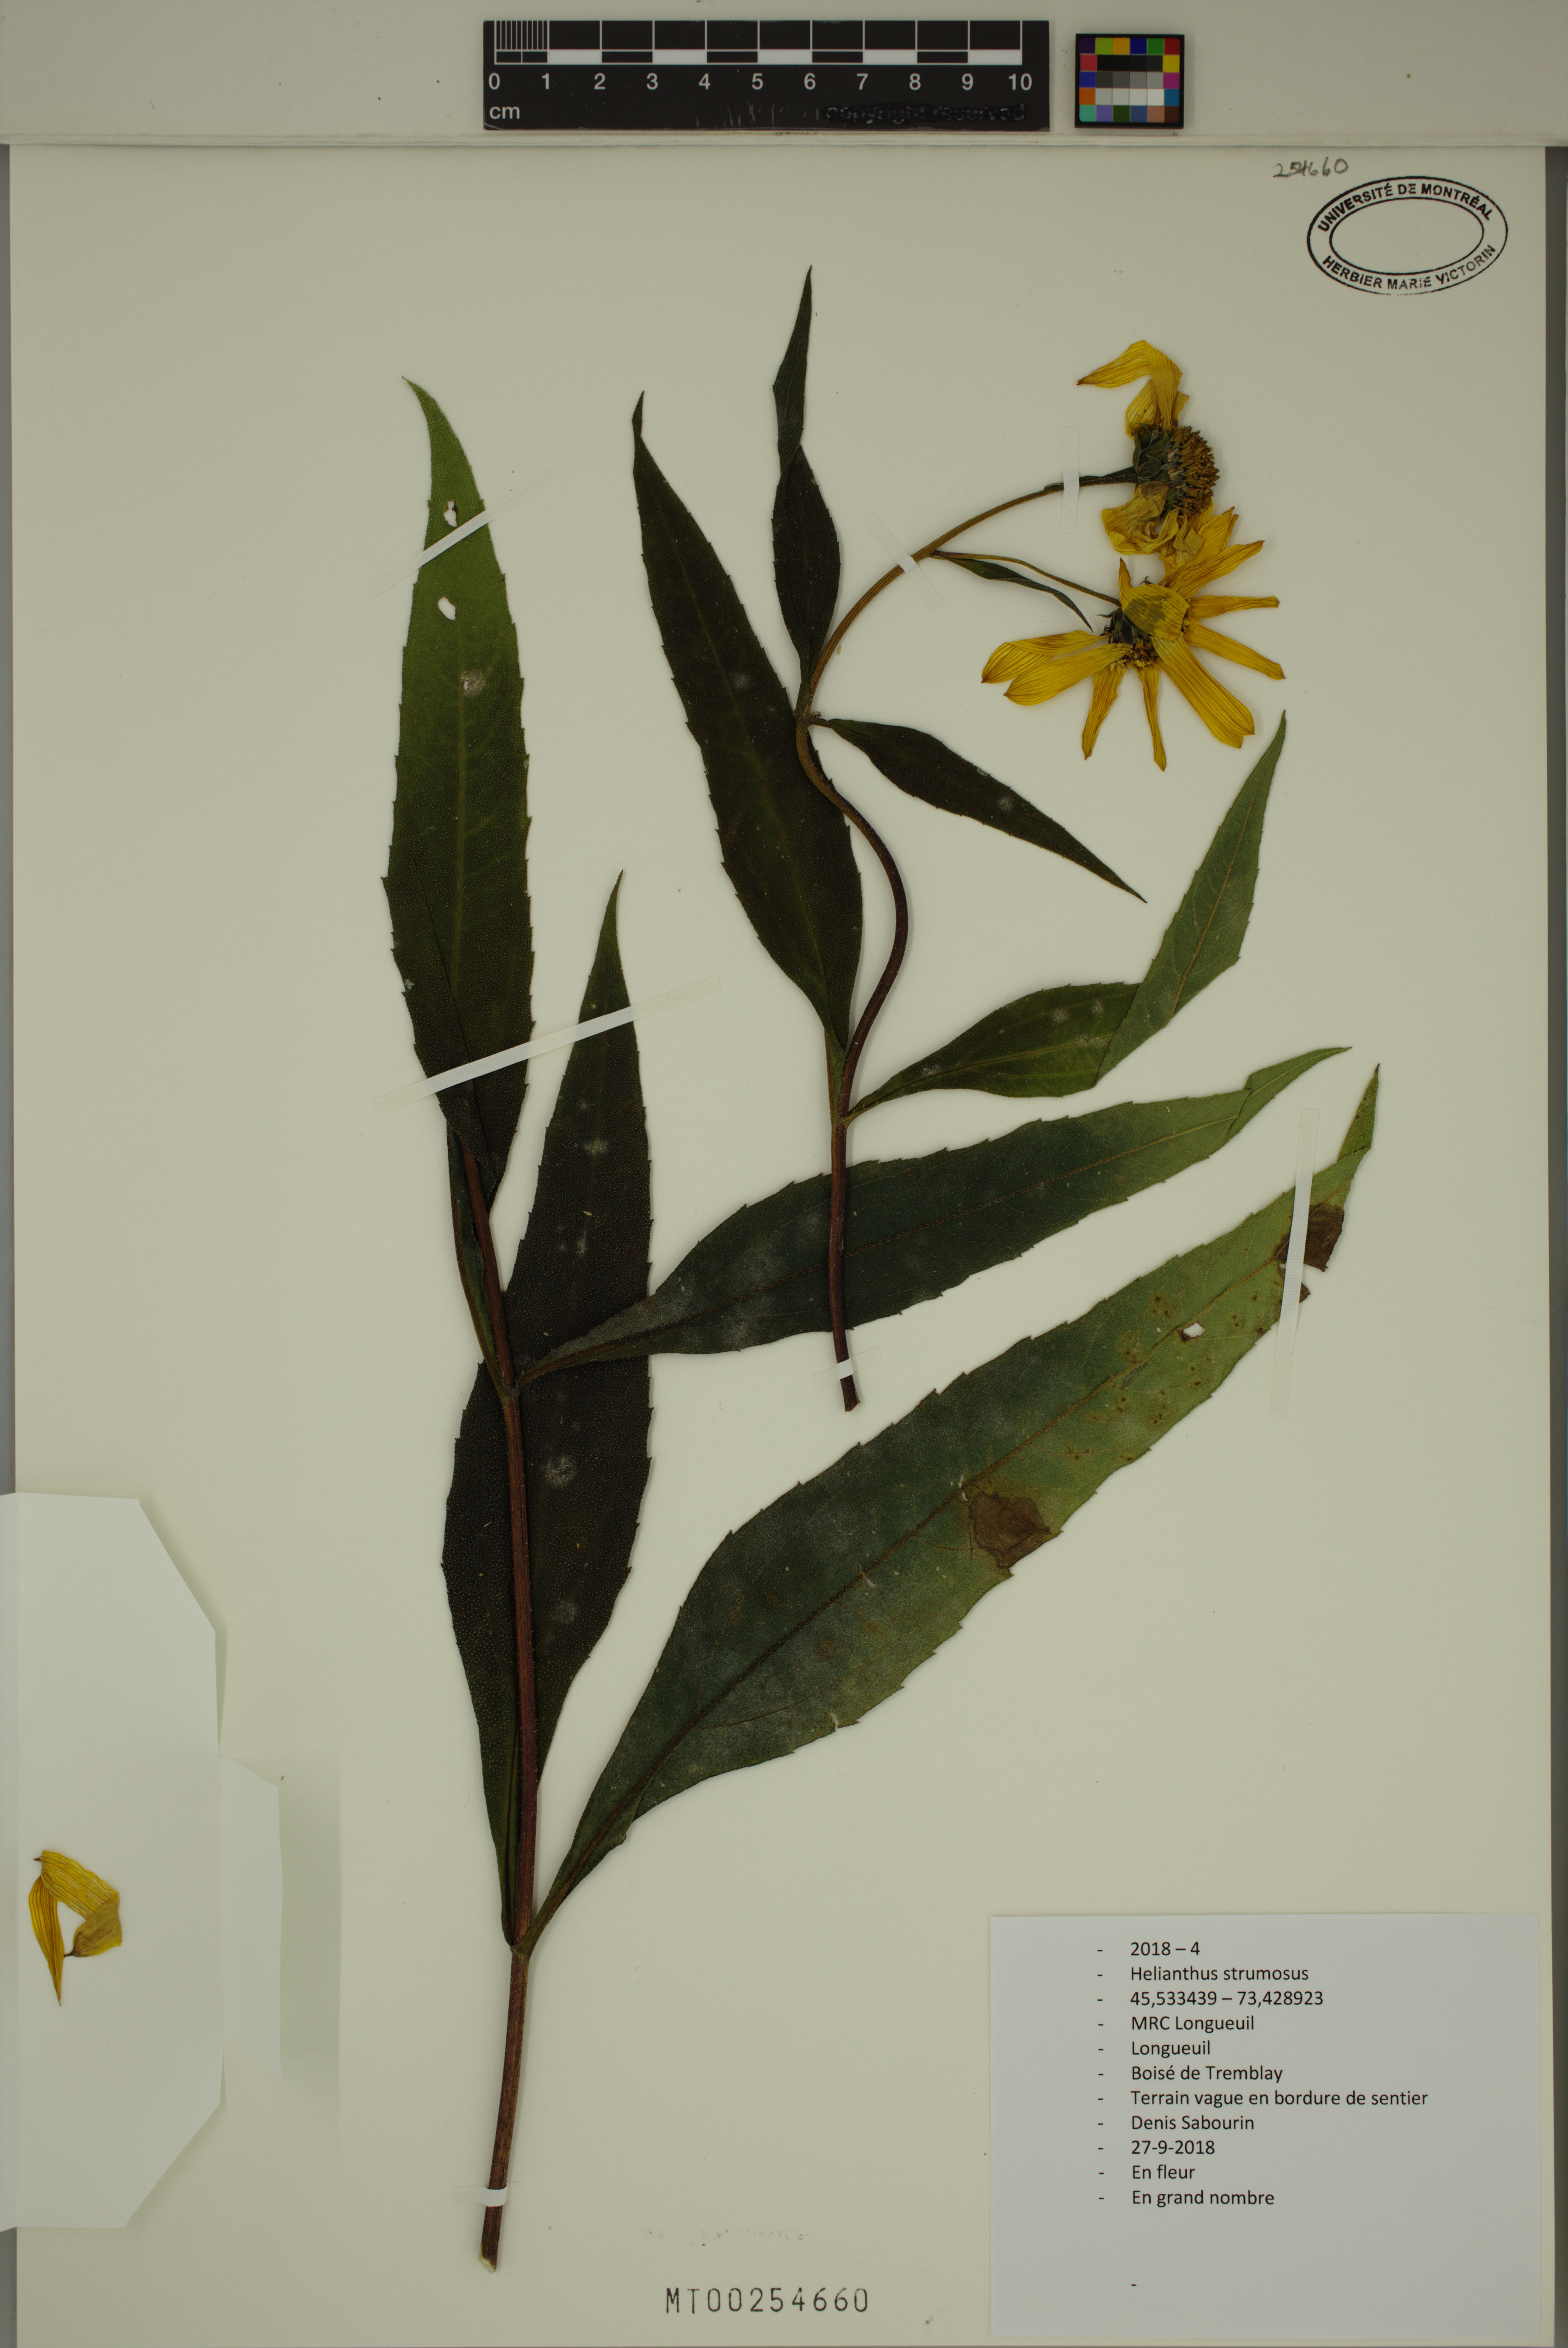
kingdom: Plantae
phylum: Tracheophyta
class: Magnoliopsida
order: Asterales
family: Asteraceae
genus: Helianthus
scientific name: Helianthus strumosus
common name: Pale-leaved sunflower
